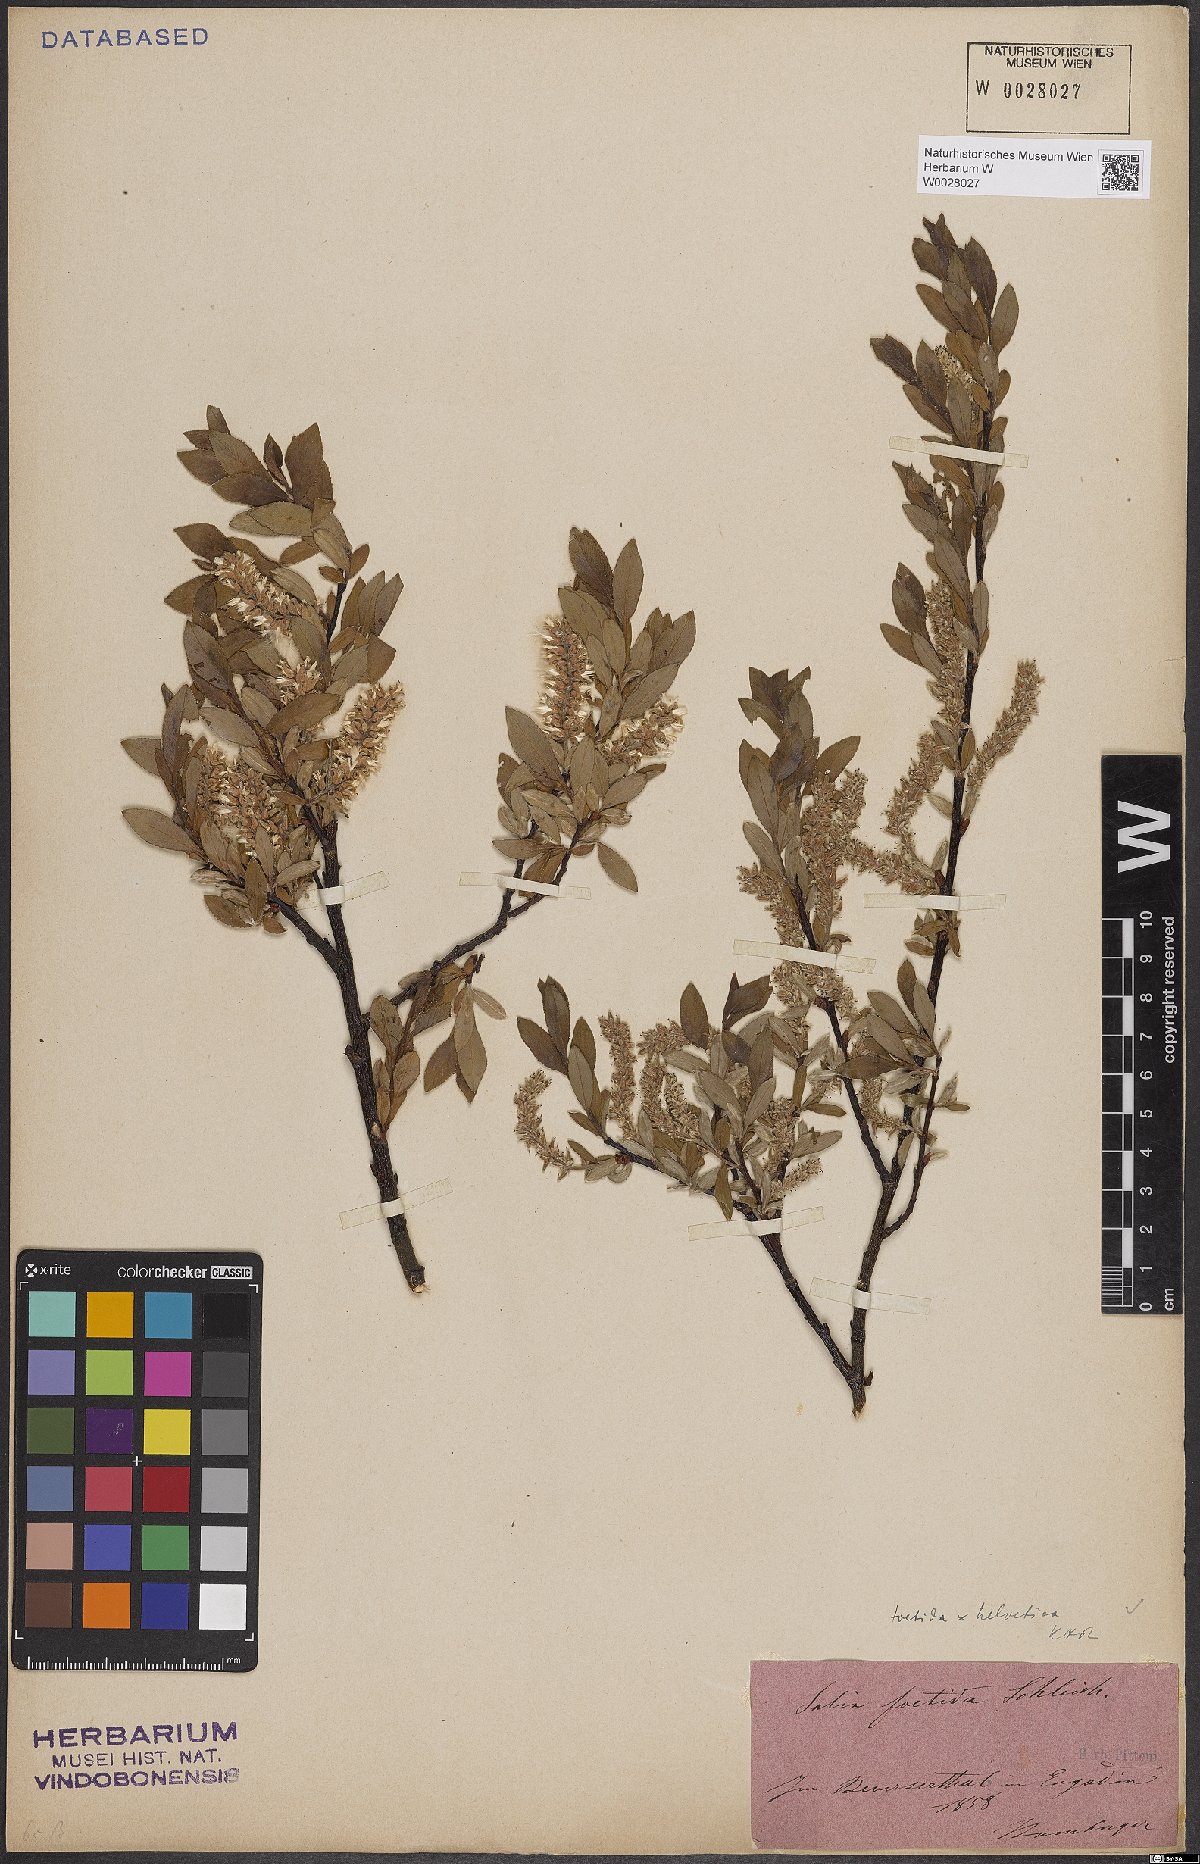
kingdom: Plantae
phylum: Tracheophyta
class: Magnoliopsida
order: Malpighiales
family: Salicaceae
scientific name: Salicaceae
